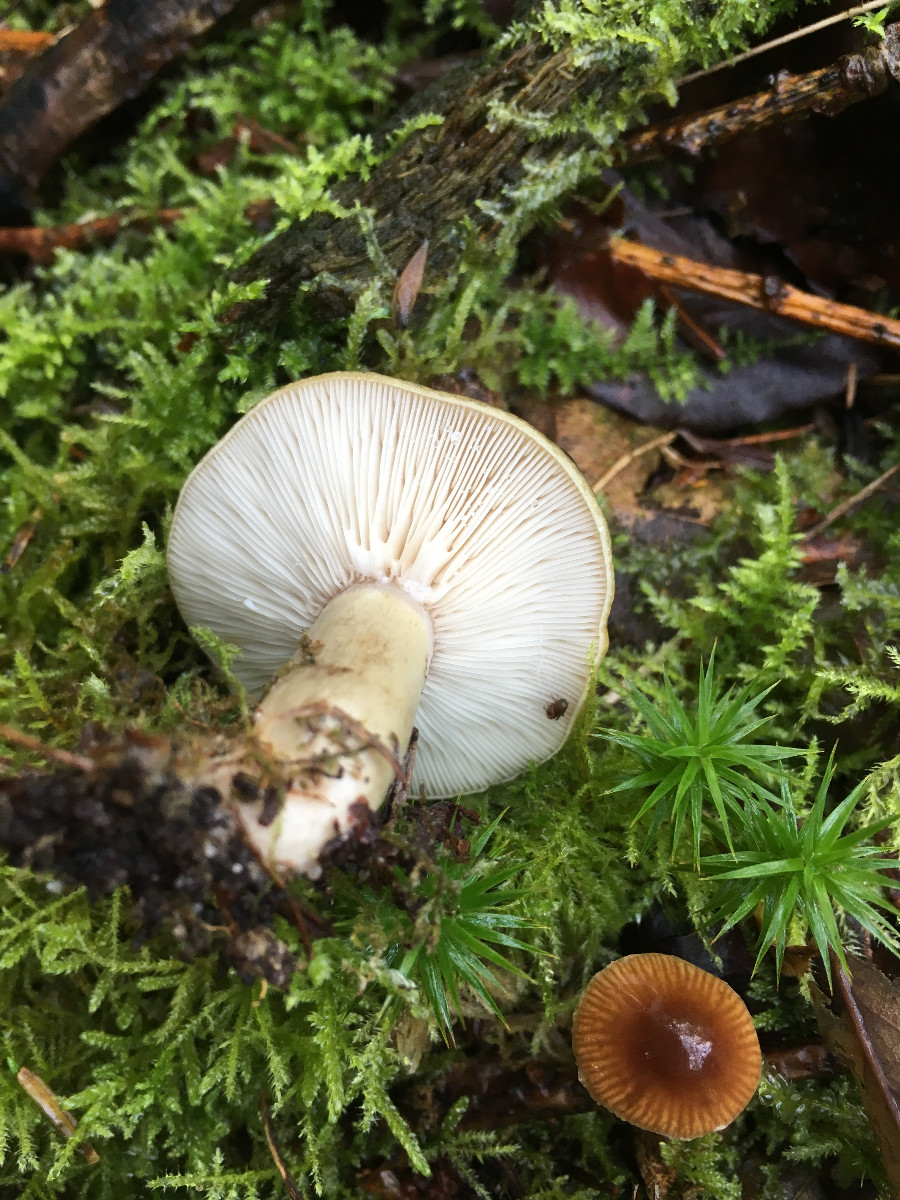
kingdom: Fungi
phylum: Basidiomycota
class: Agaricomycetes
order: Russulales
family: Russulaceae
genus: Lactarius
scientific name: Lactarius blennius
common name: dråbeplettet mælkehat
